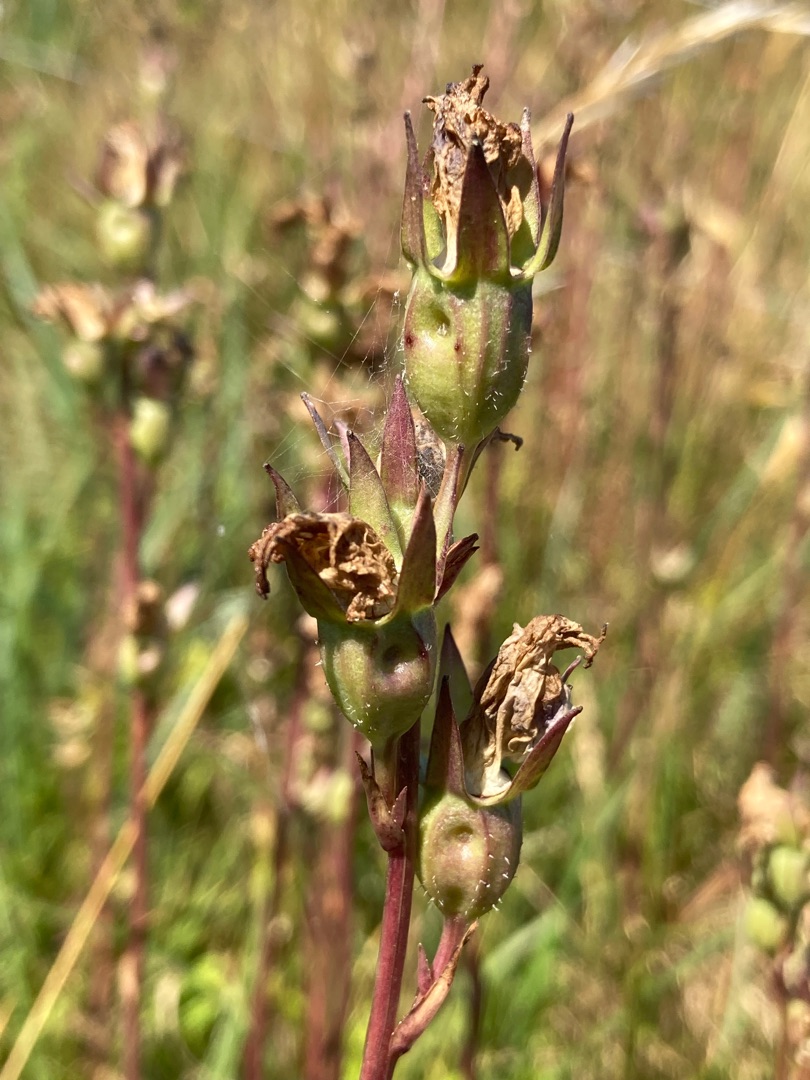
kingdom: Plantae
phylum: Tracheophyta
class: Magnoliopsida
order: Asterales
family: Campanulaceae
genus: Campanula
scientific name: Campanula persicifolia
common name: Smalbladet klokke
